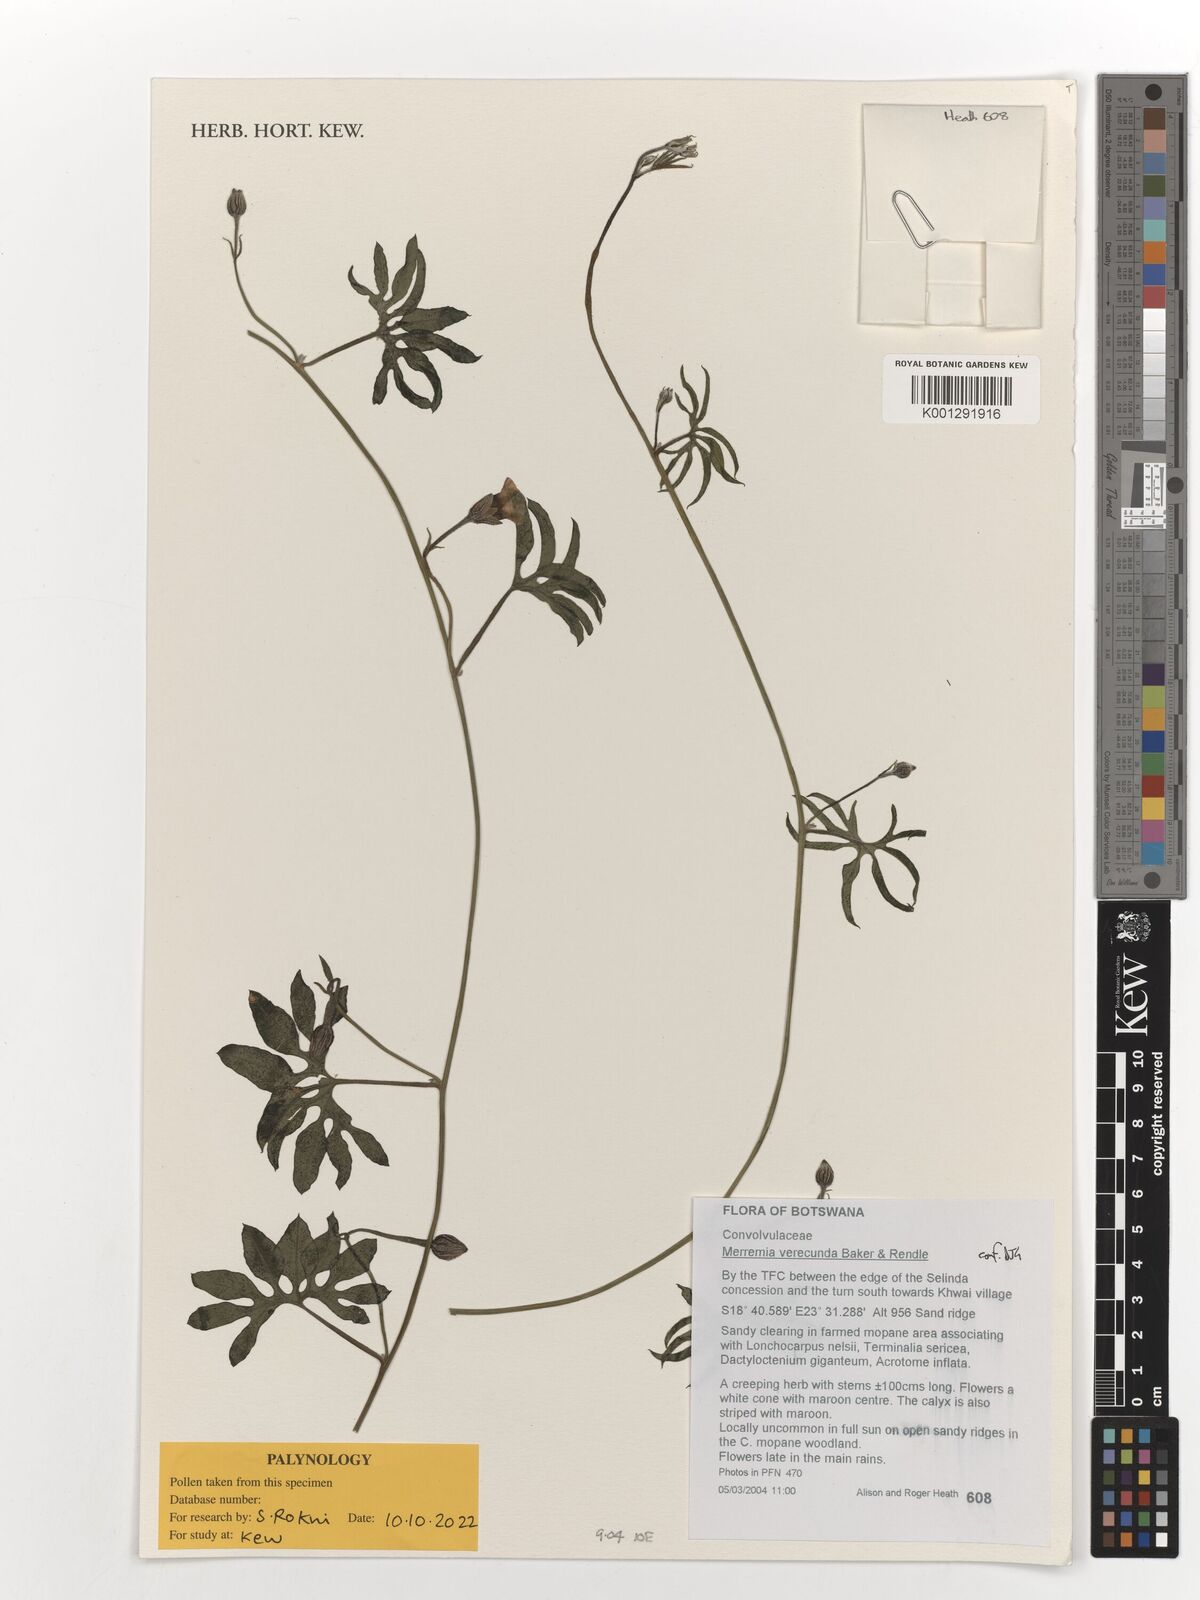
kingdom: Plantae
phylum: Tracheophyta
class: Magnoliopsida
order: Solanales
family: Convolvulaceae
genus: Merremia
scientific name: Merremia verecunda
